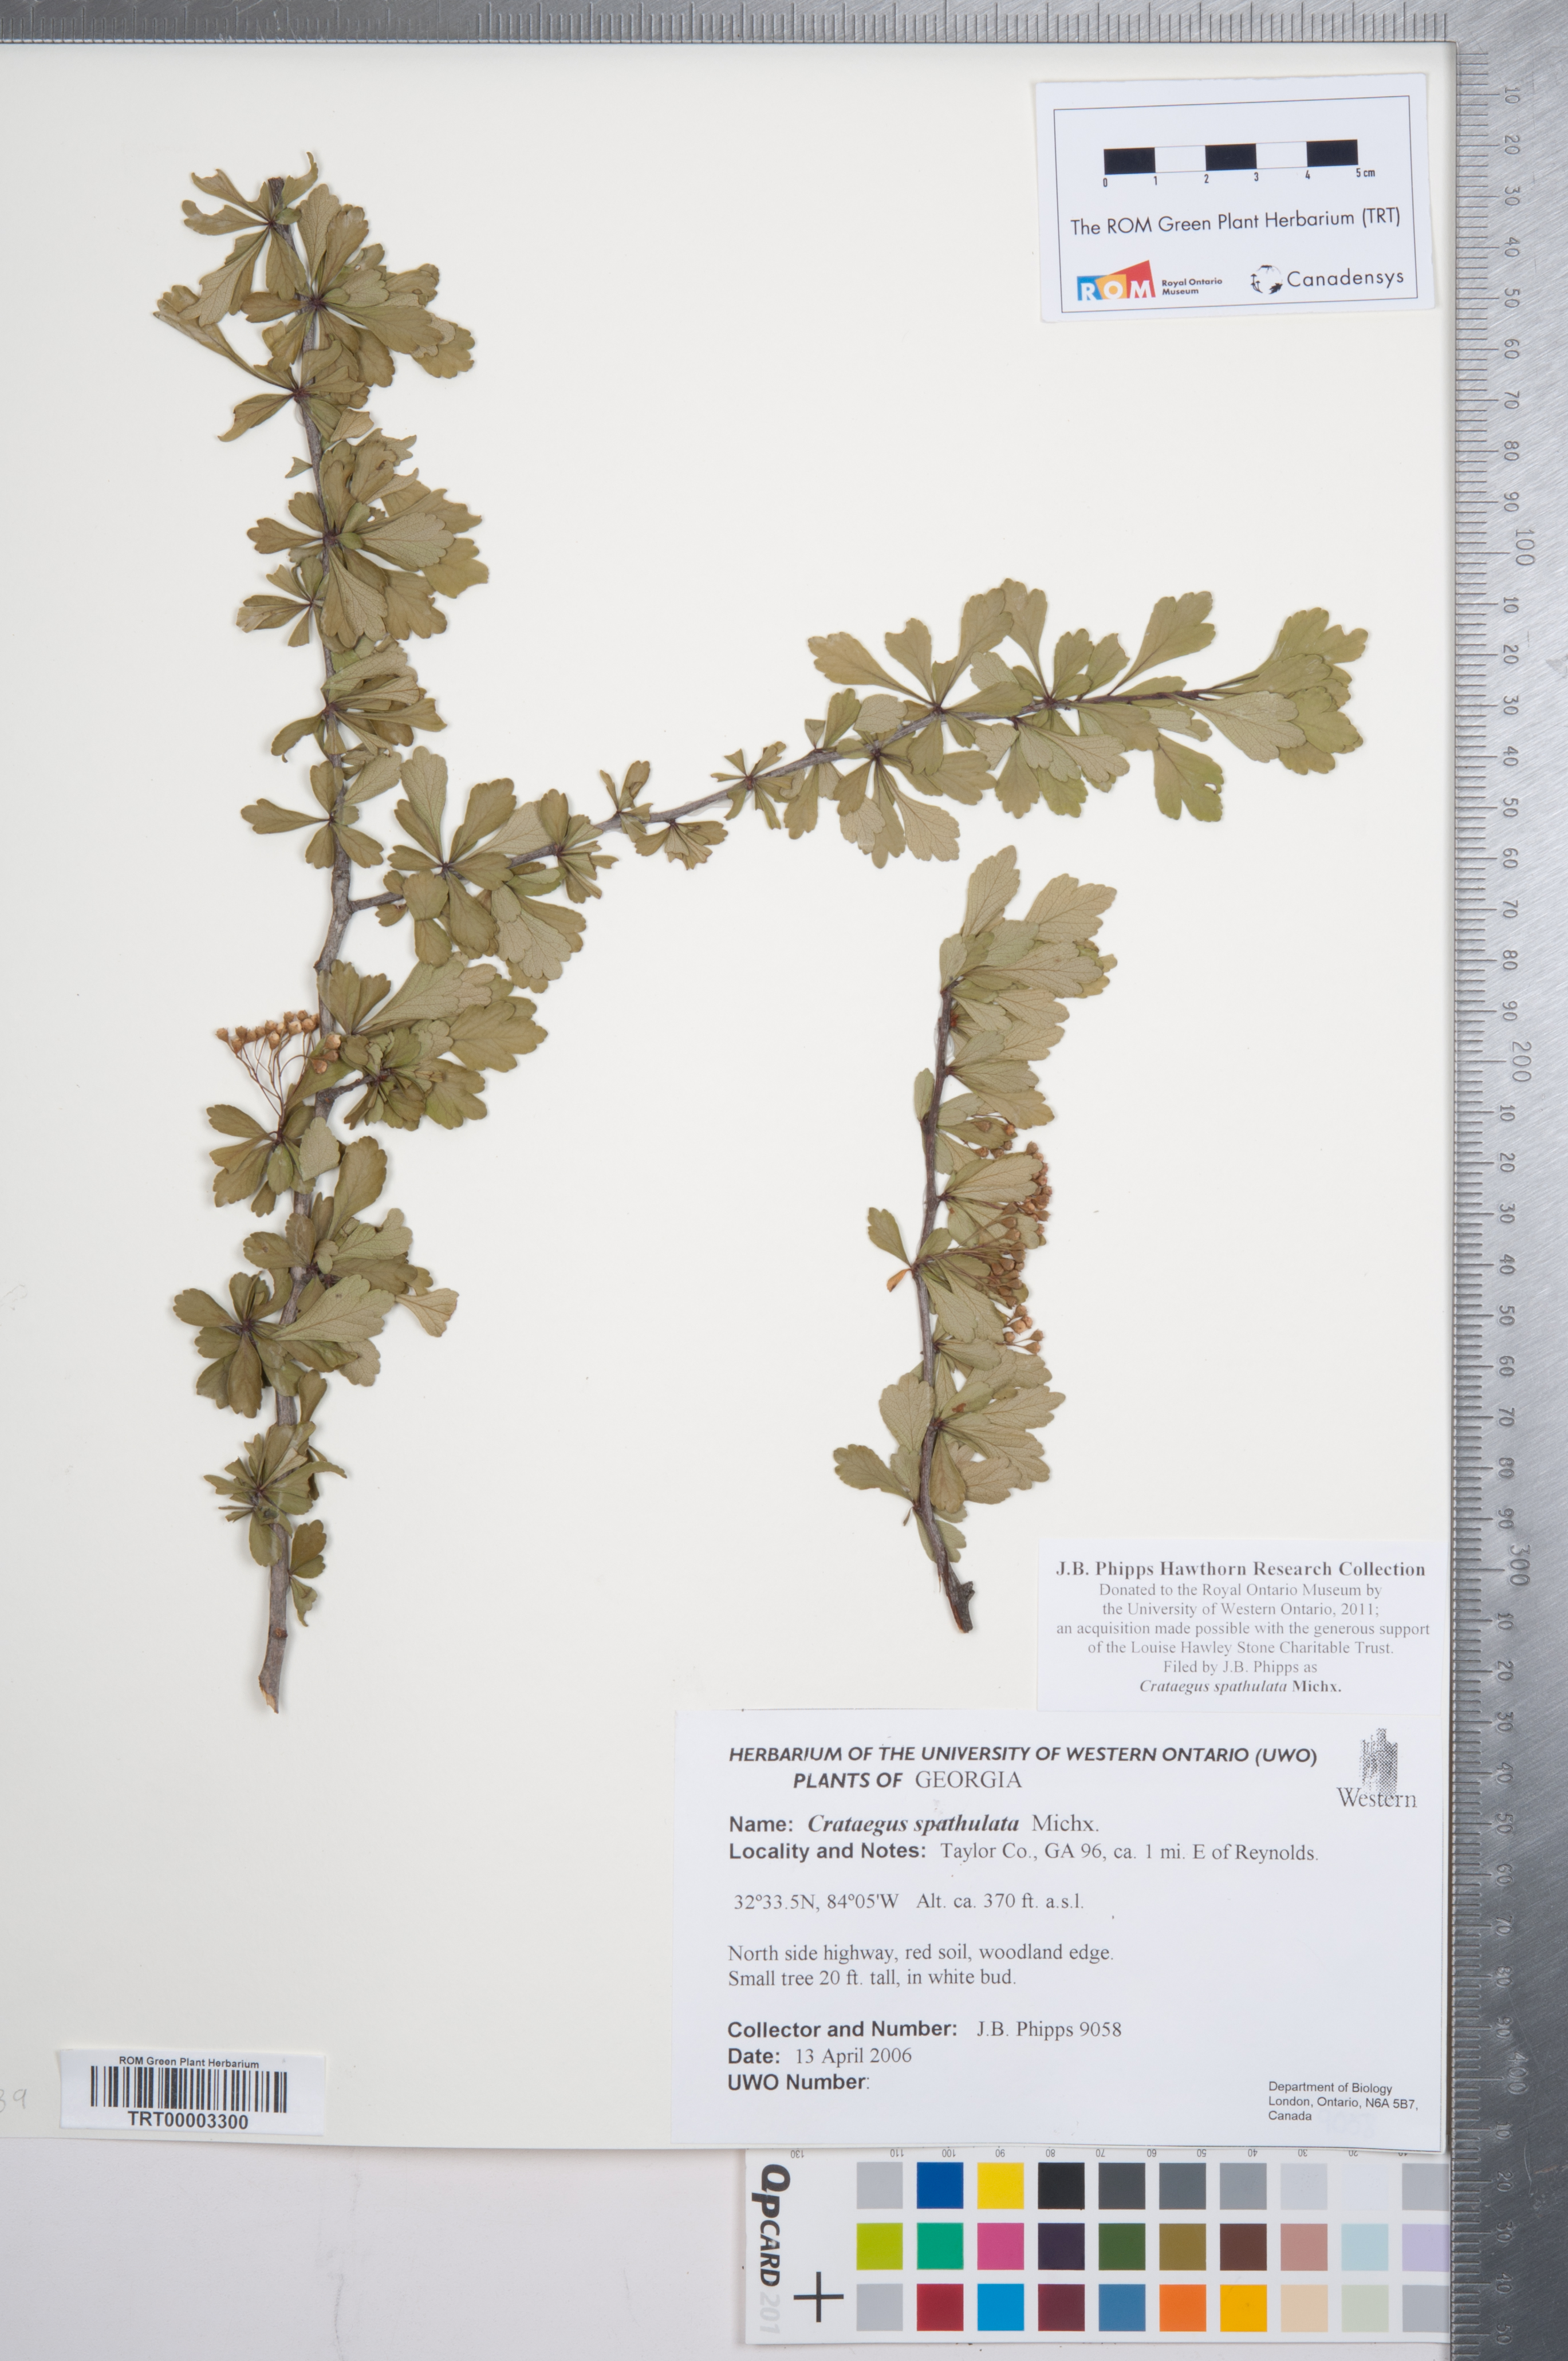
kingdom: Plantae
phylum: Tracheophyta
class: Magnoliopsida
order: Rosales
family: Rosaceae
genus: Crataegus
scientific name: Crataegus spathulata
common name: Littlehip hawthorn
